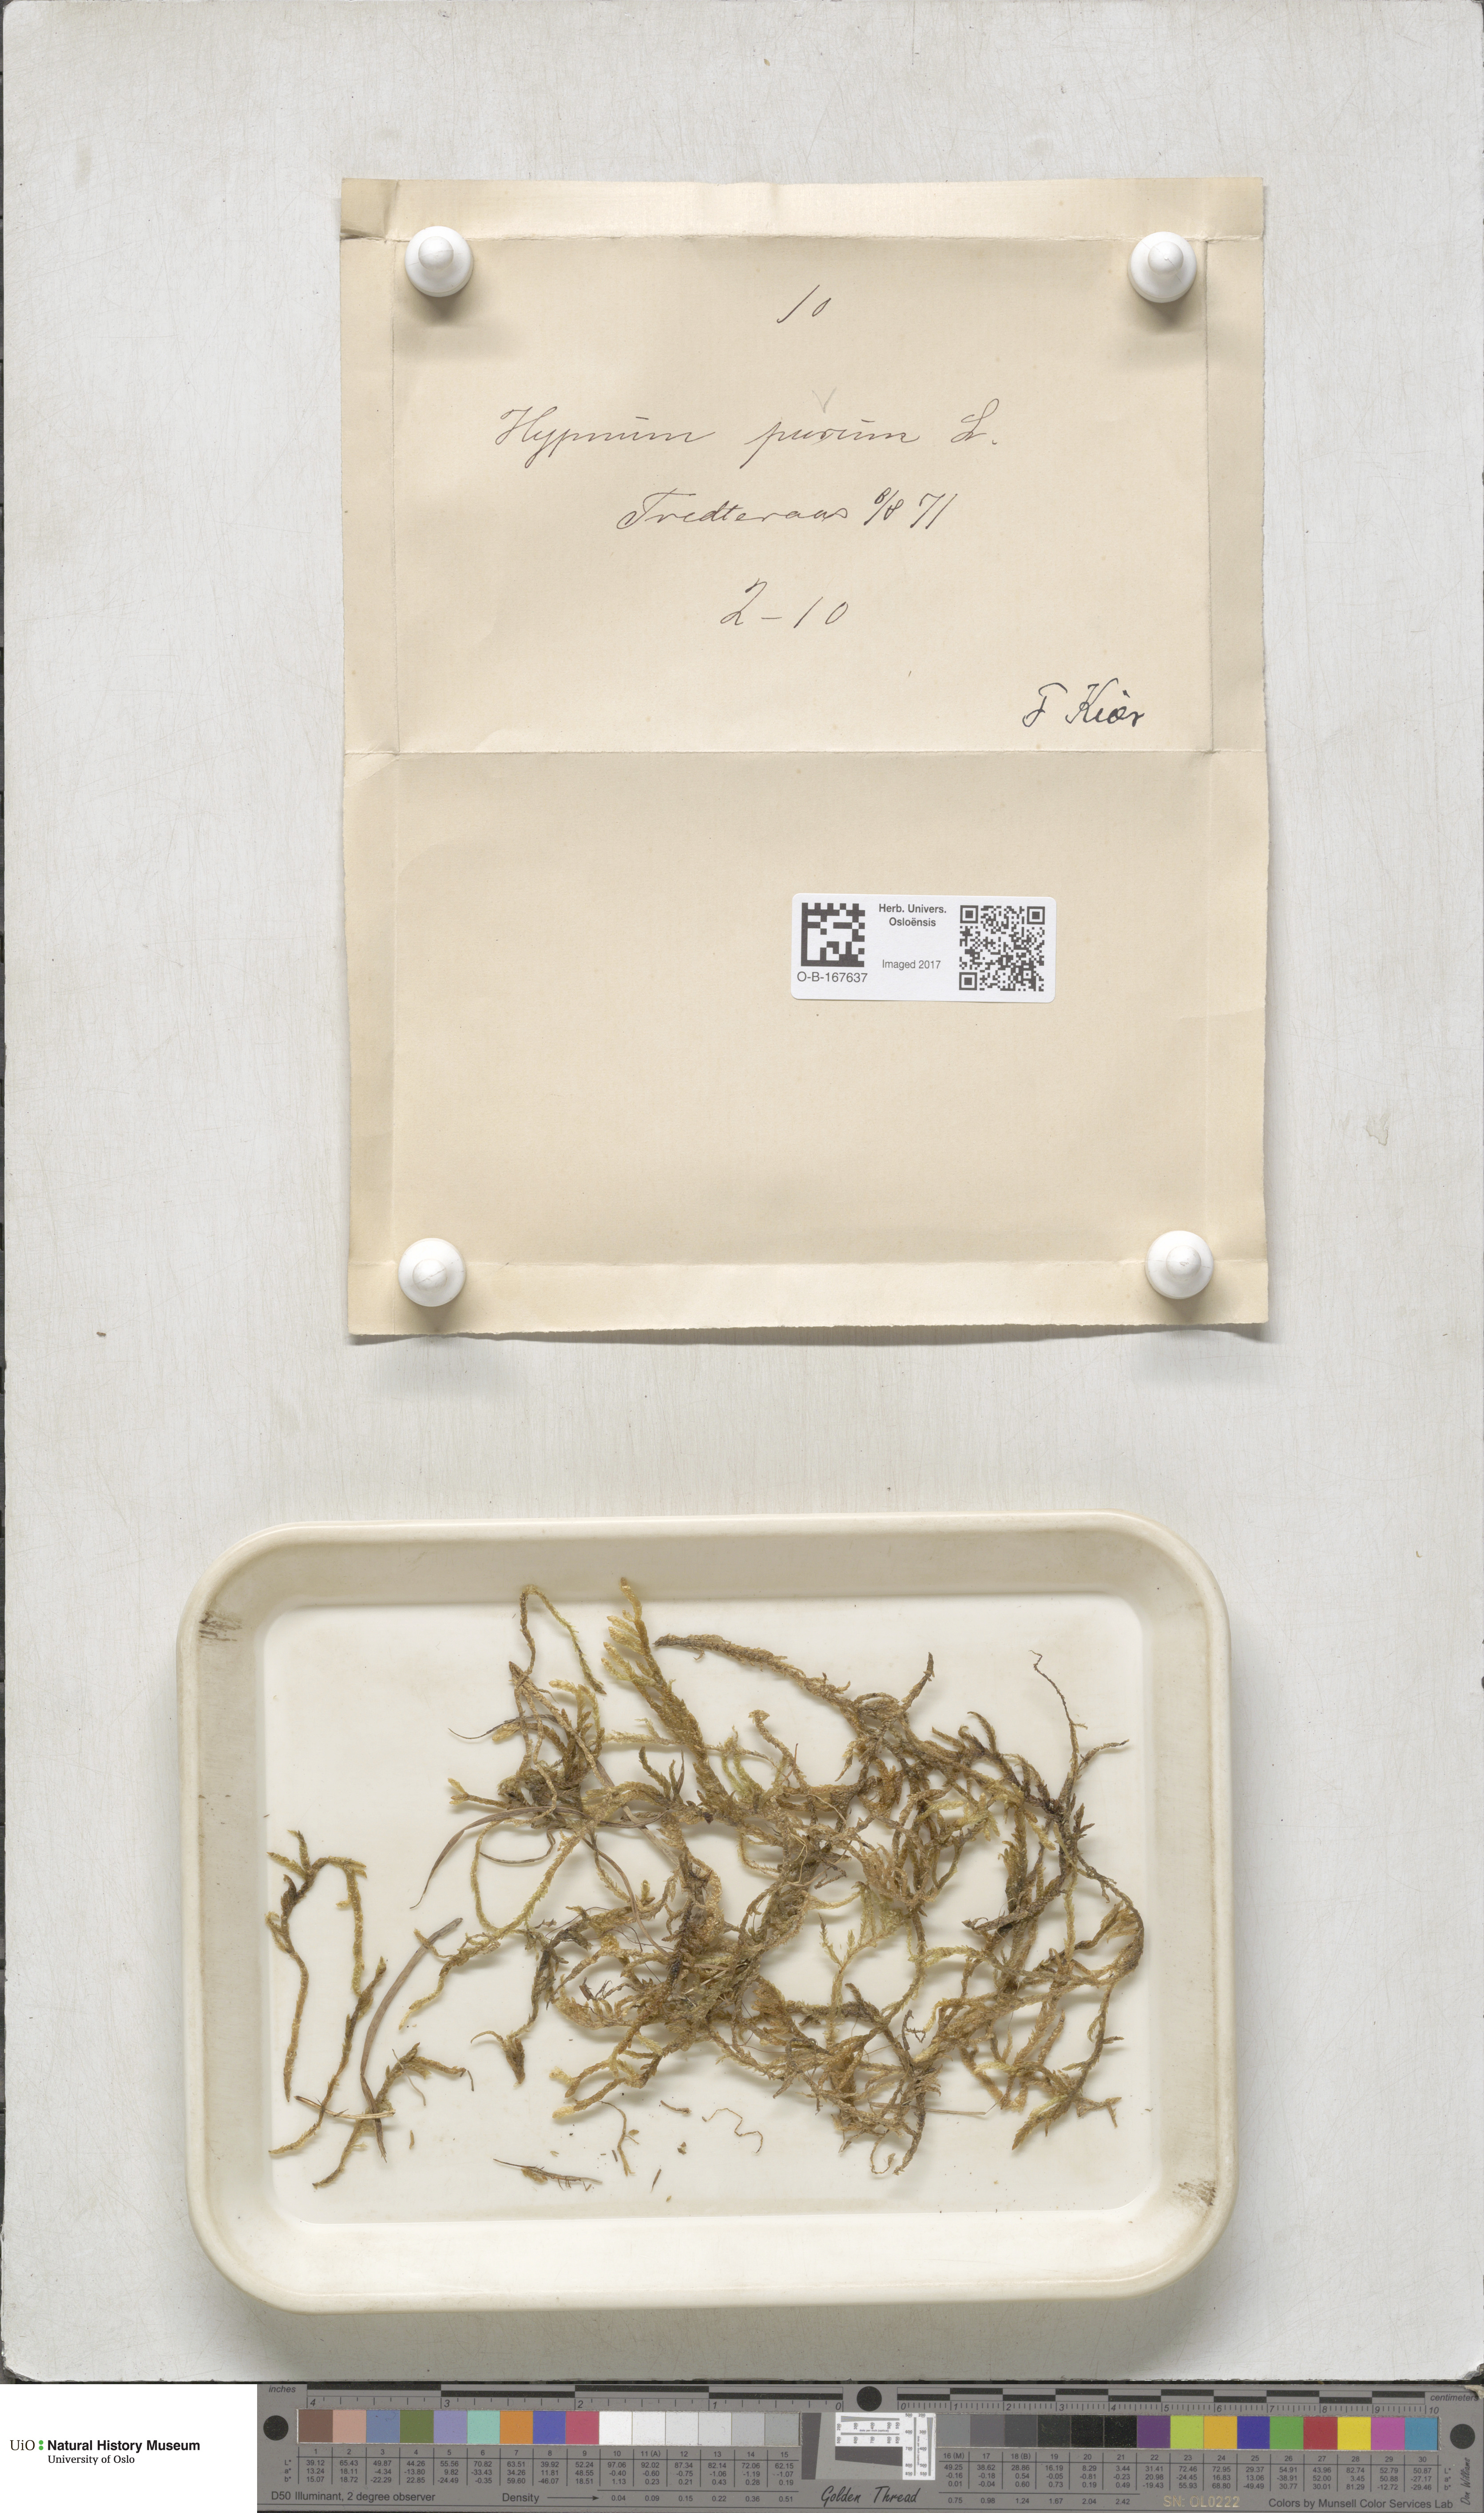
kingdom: Plantae
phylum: Bryophyta
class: Bryopsida
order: Hypnales
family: Brachytheciaceae
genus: Pseudoscleropodium
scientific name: Pseudoscleropodium purum
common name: Neat feather-moss
